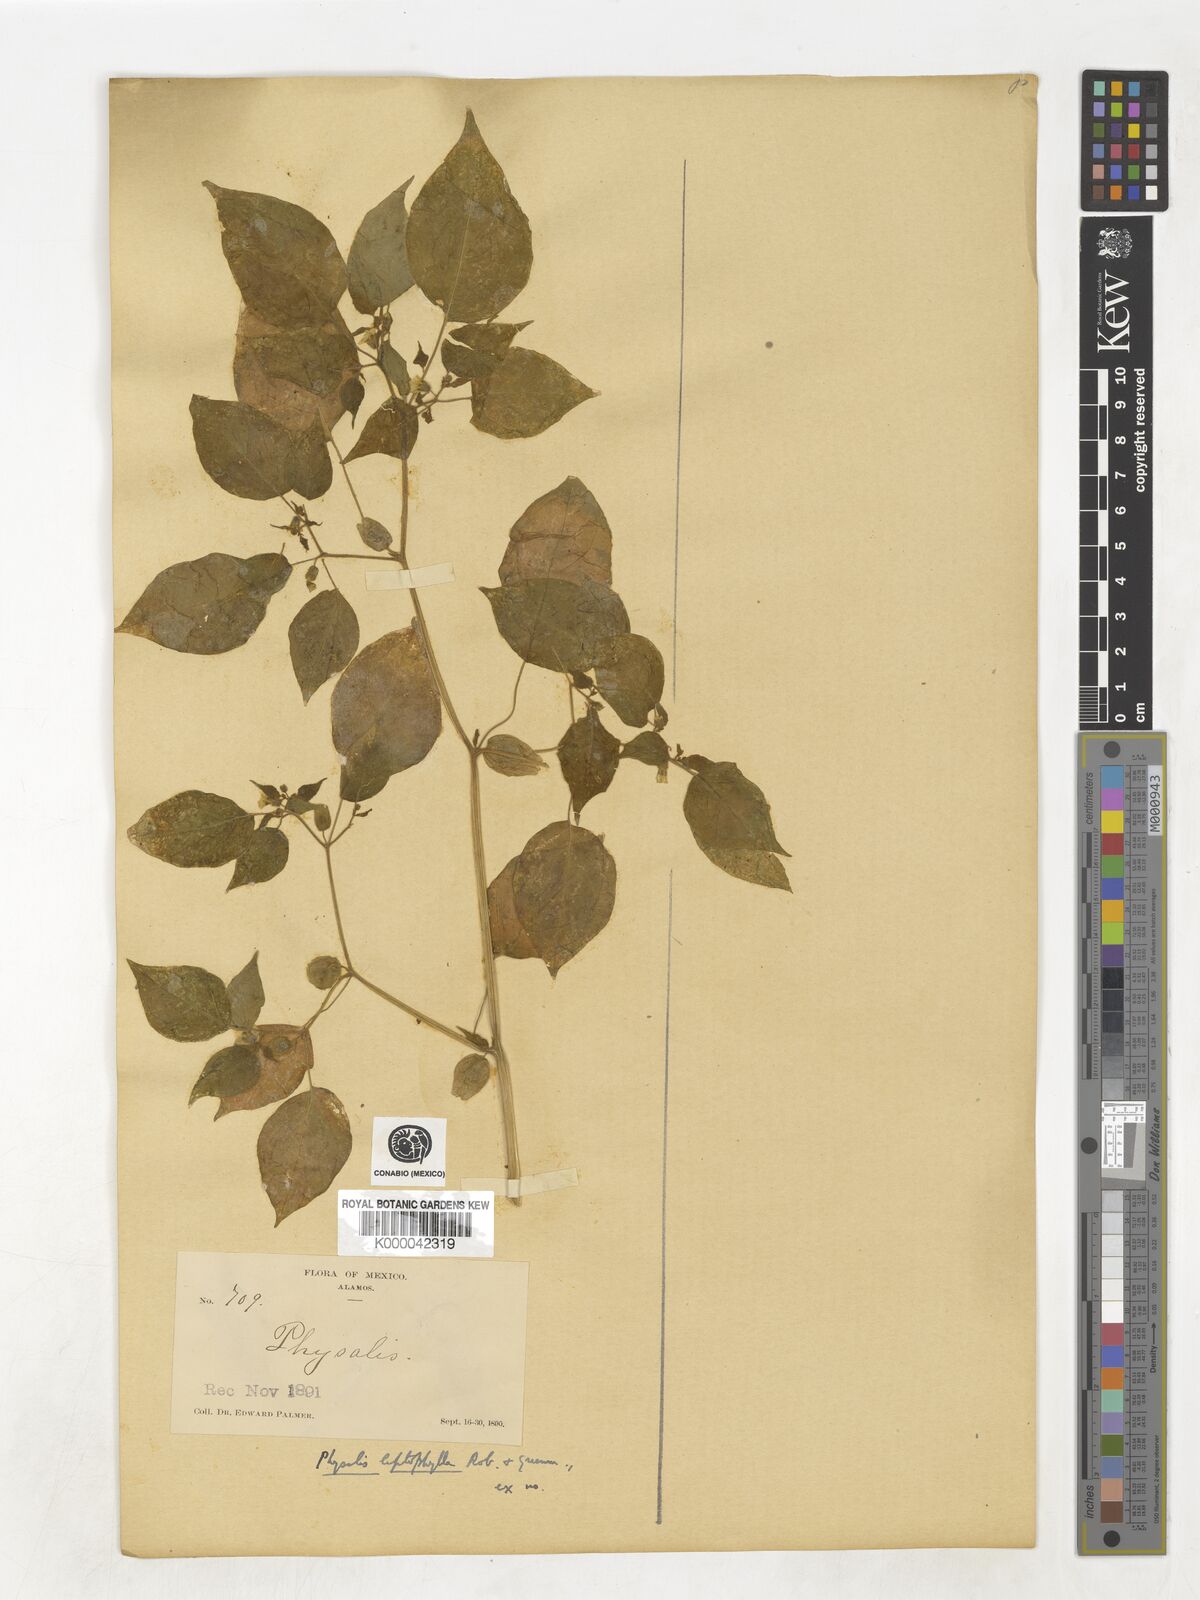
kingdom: Plantae
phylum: Tracheophyta
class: Magnoliopsida
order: Solanales
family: Solanaceae
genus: Physalis
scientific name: Physalis leptophylla
